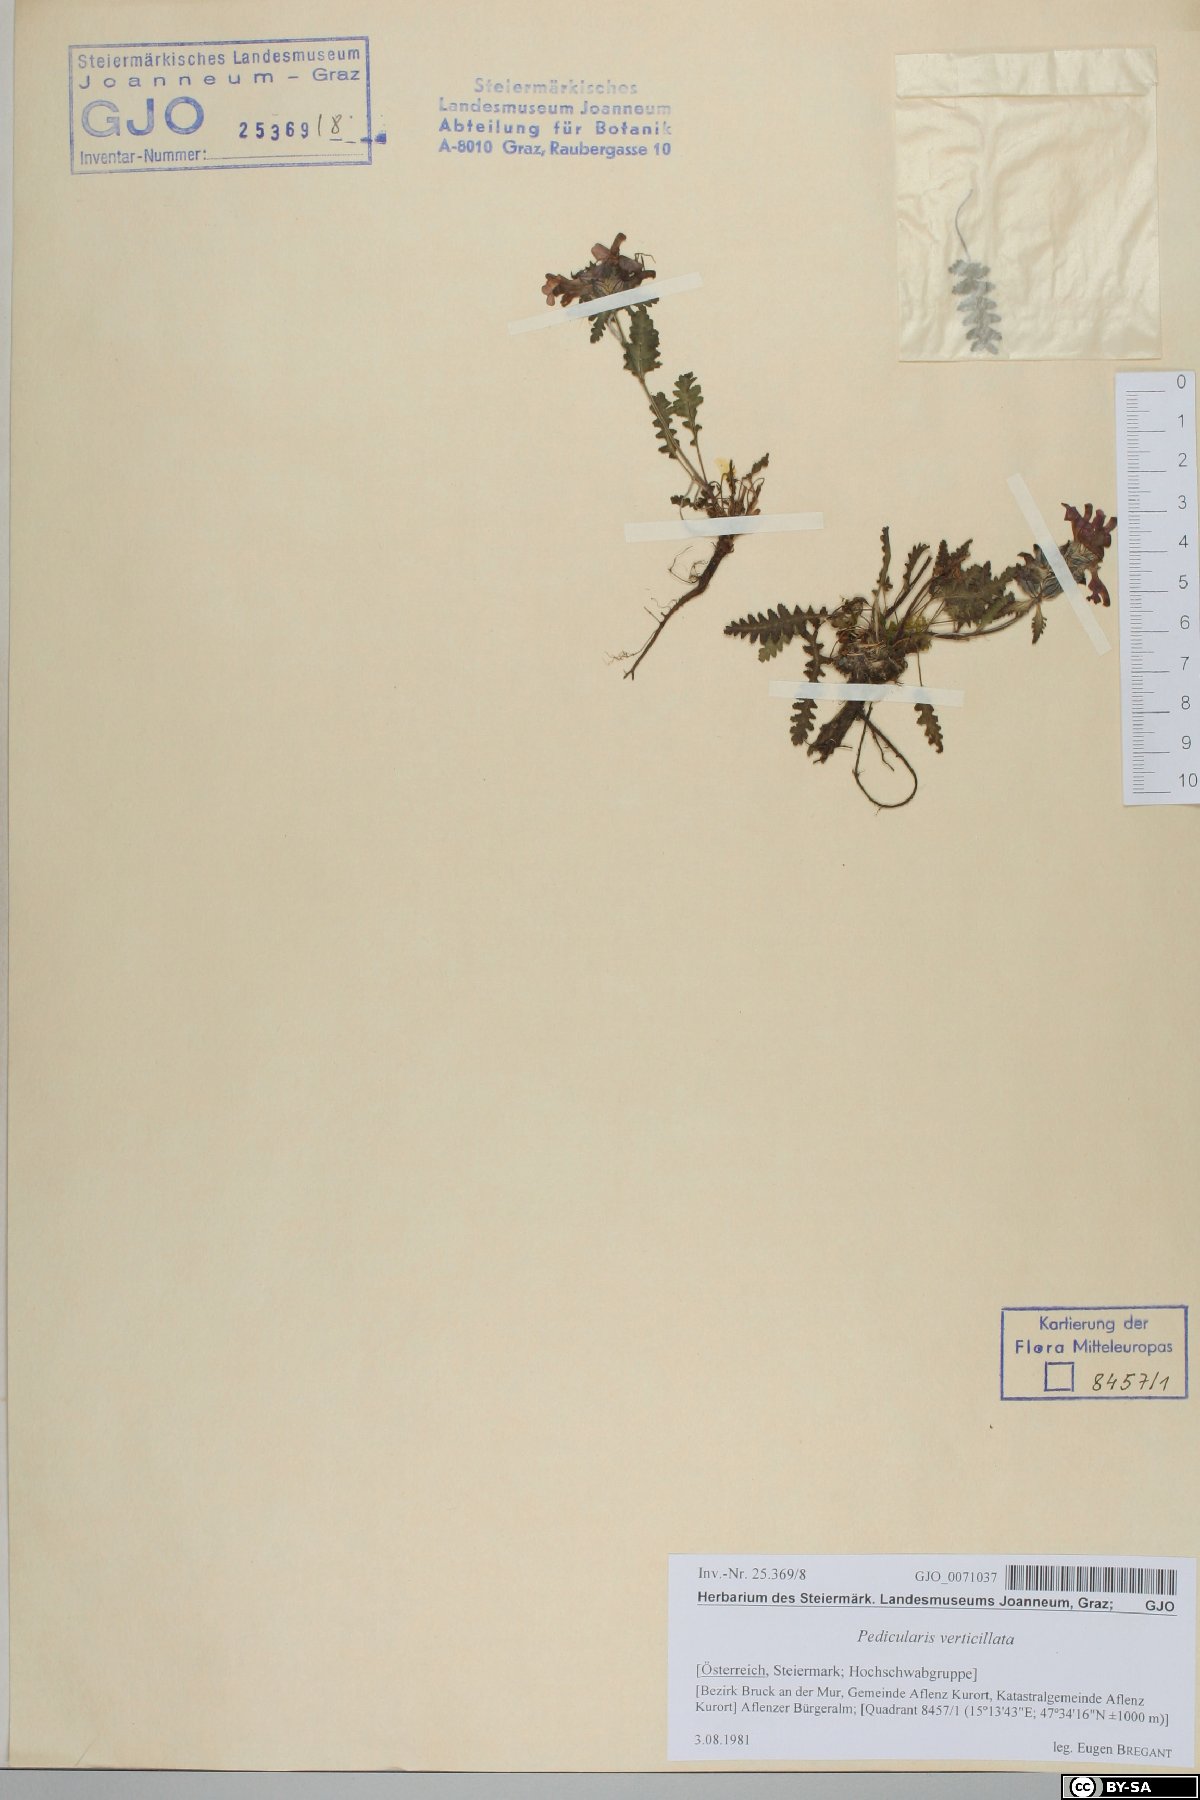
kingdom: Plantae
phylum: Tracheophyta
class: Magnoliopsida
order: Lamiales
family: Orobanchaceae
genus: Pedicularis
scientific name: Pedicularis verticillata
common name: Whorled lousewort
